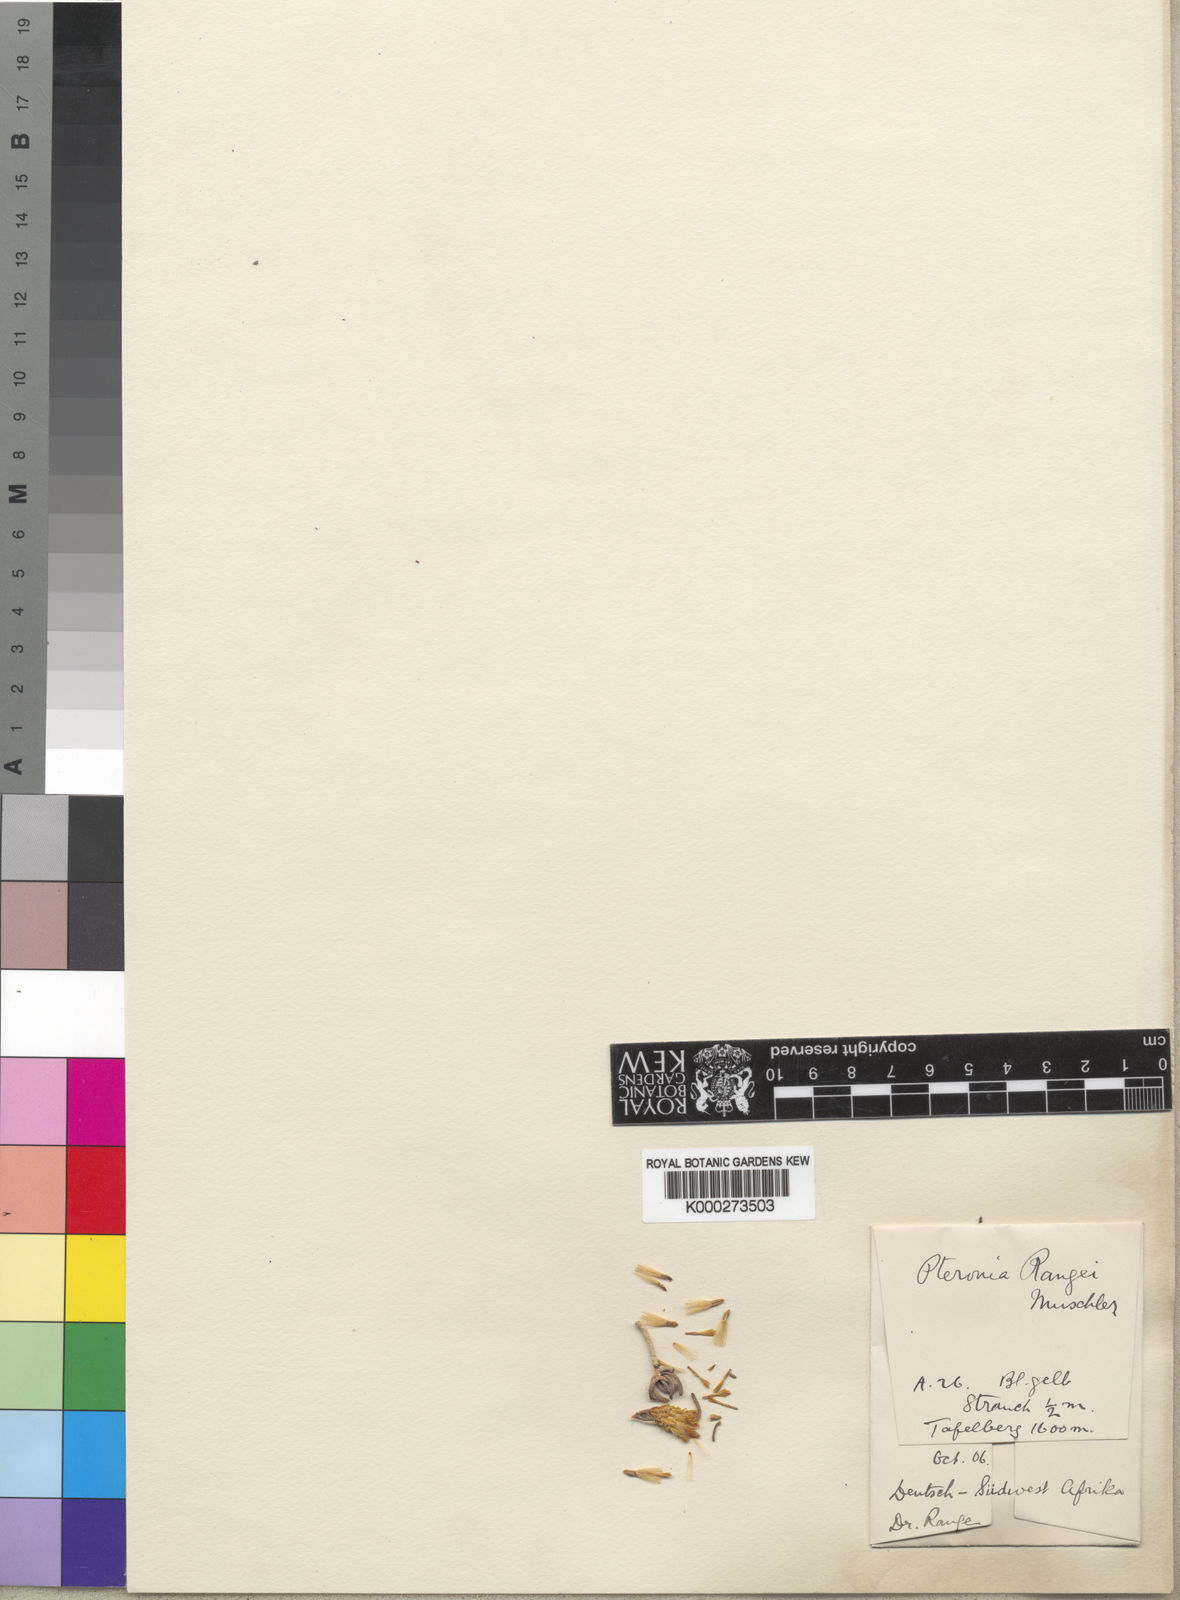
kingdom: Plantae
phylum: Tracheophyta
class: Magnoliopsida
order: Asterales
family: Asteraceae
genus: Pteronia
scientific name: Pteronia rangei
